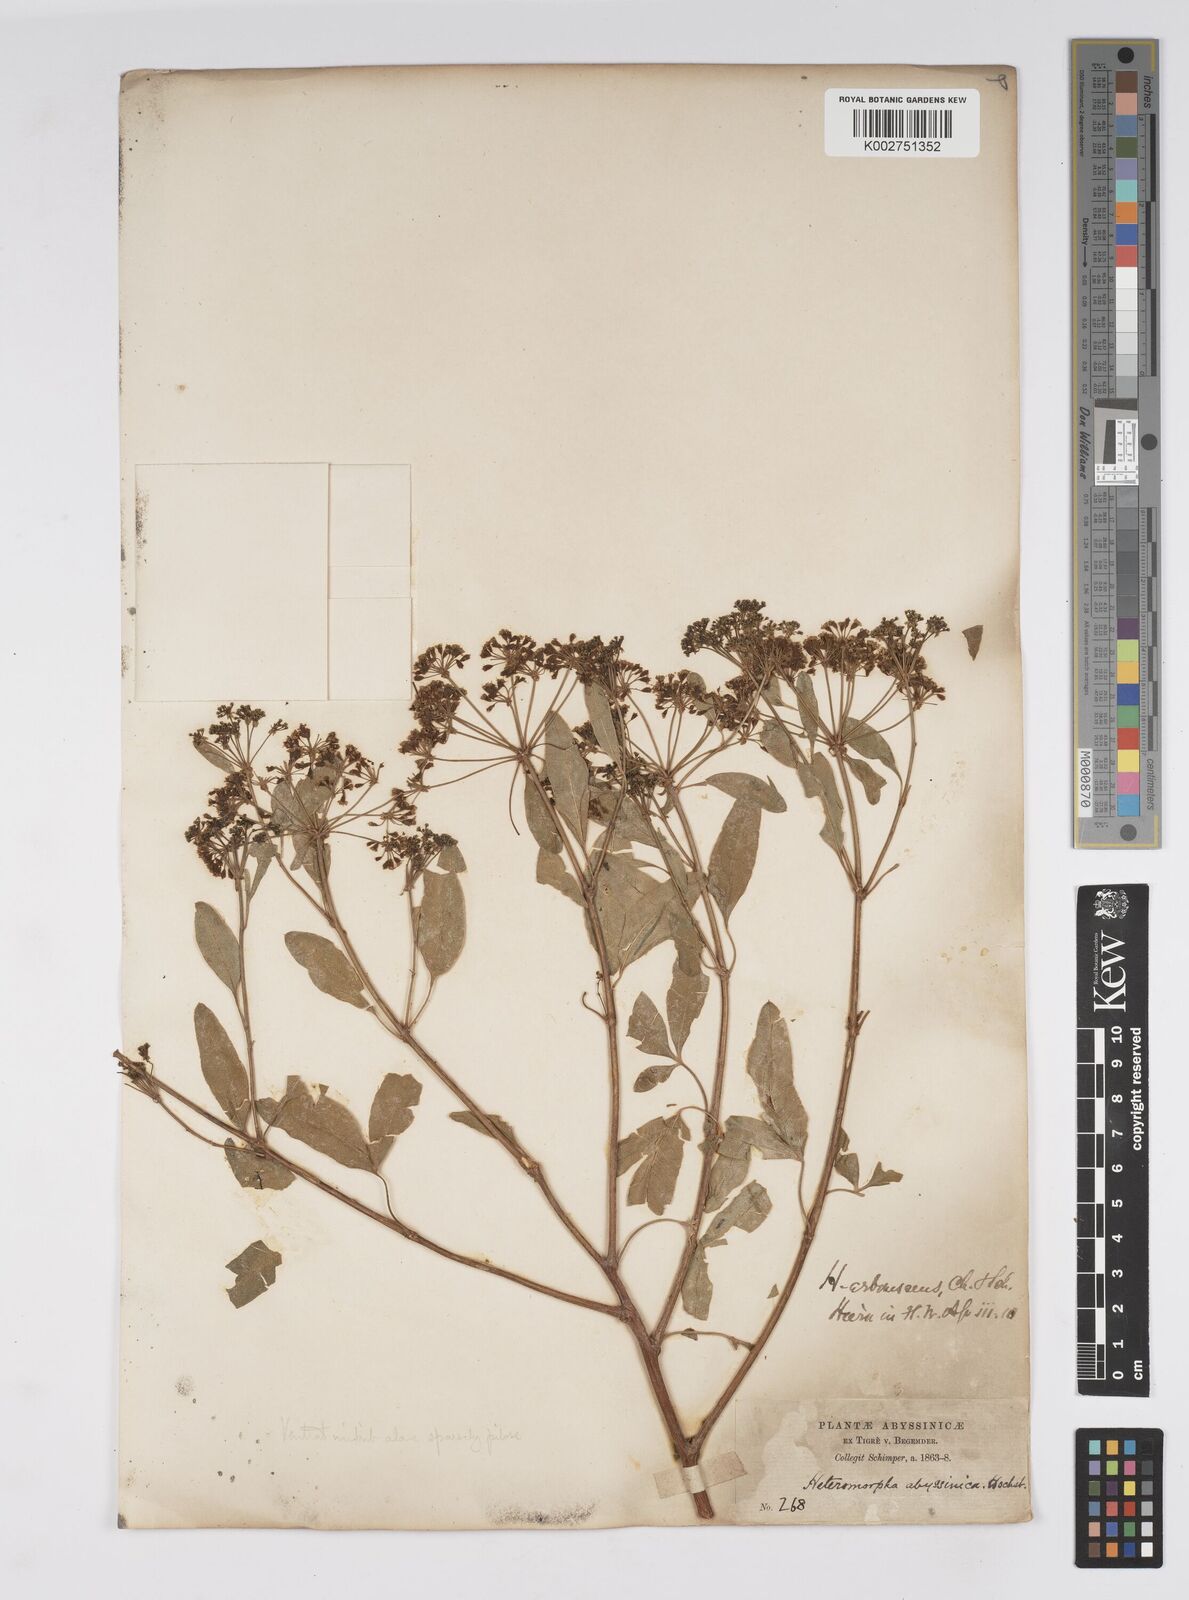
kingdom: Plantae
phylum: Tracheophyta
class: Magnoliopsida
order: Apiales
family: Apiaceae
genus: Heteromorpha
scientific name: Heteromorpha
